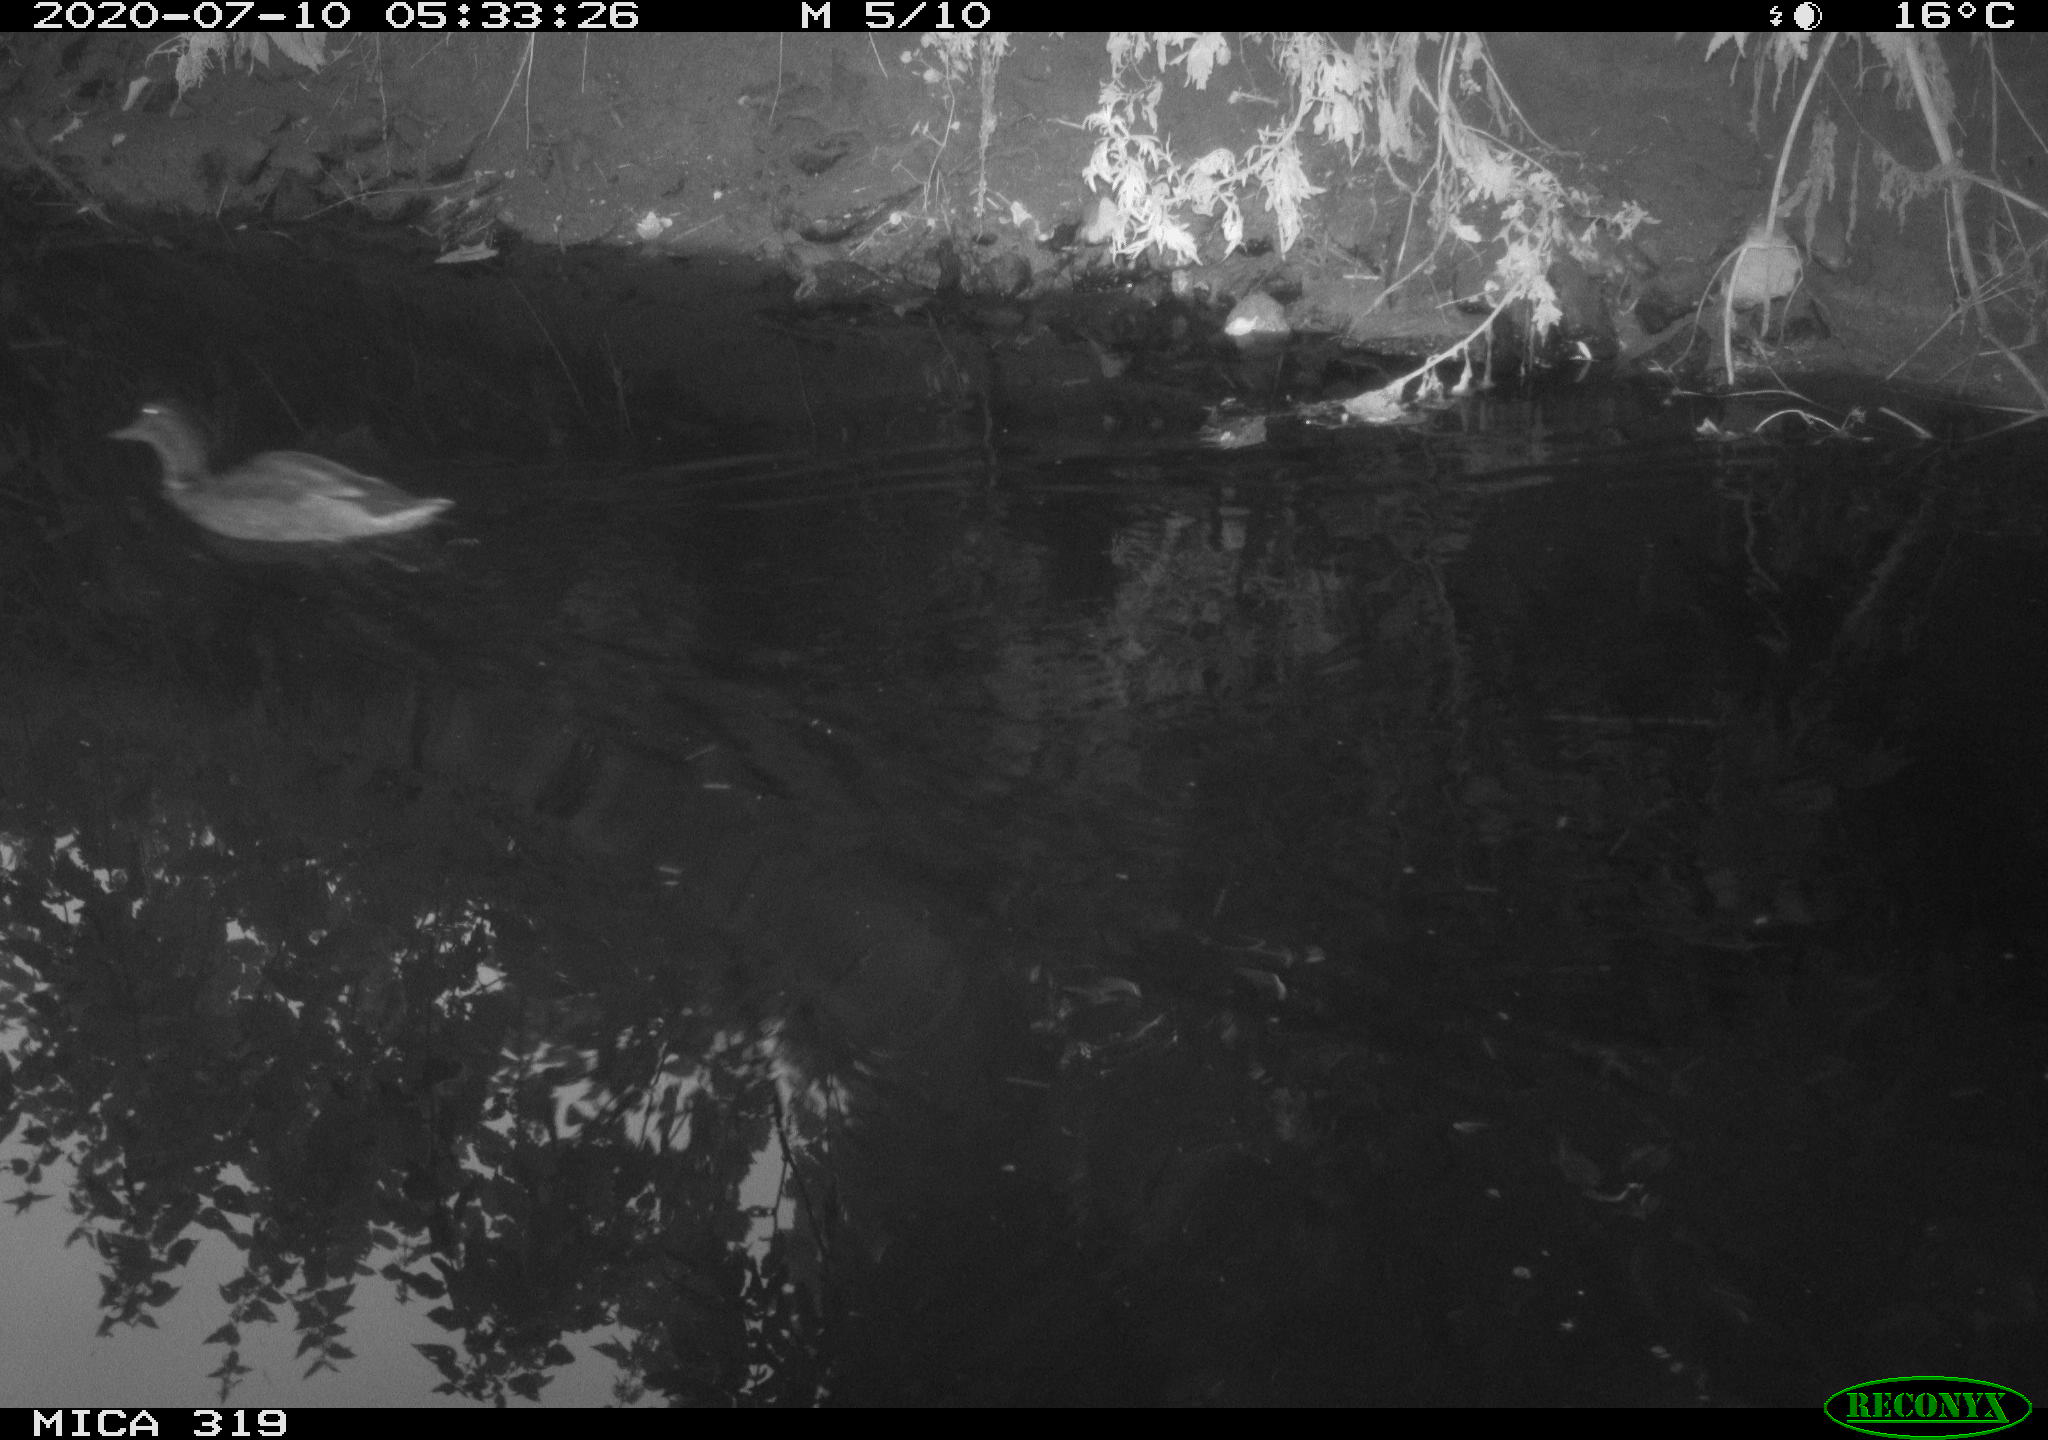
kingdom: Animalia
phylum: Chordata
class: Aves
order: Anseriformes
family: Anatidae
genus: Anas
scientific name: Anas platyrhynchos
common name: Mallard
